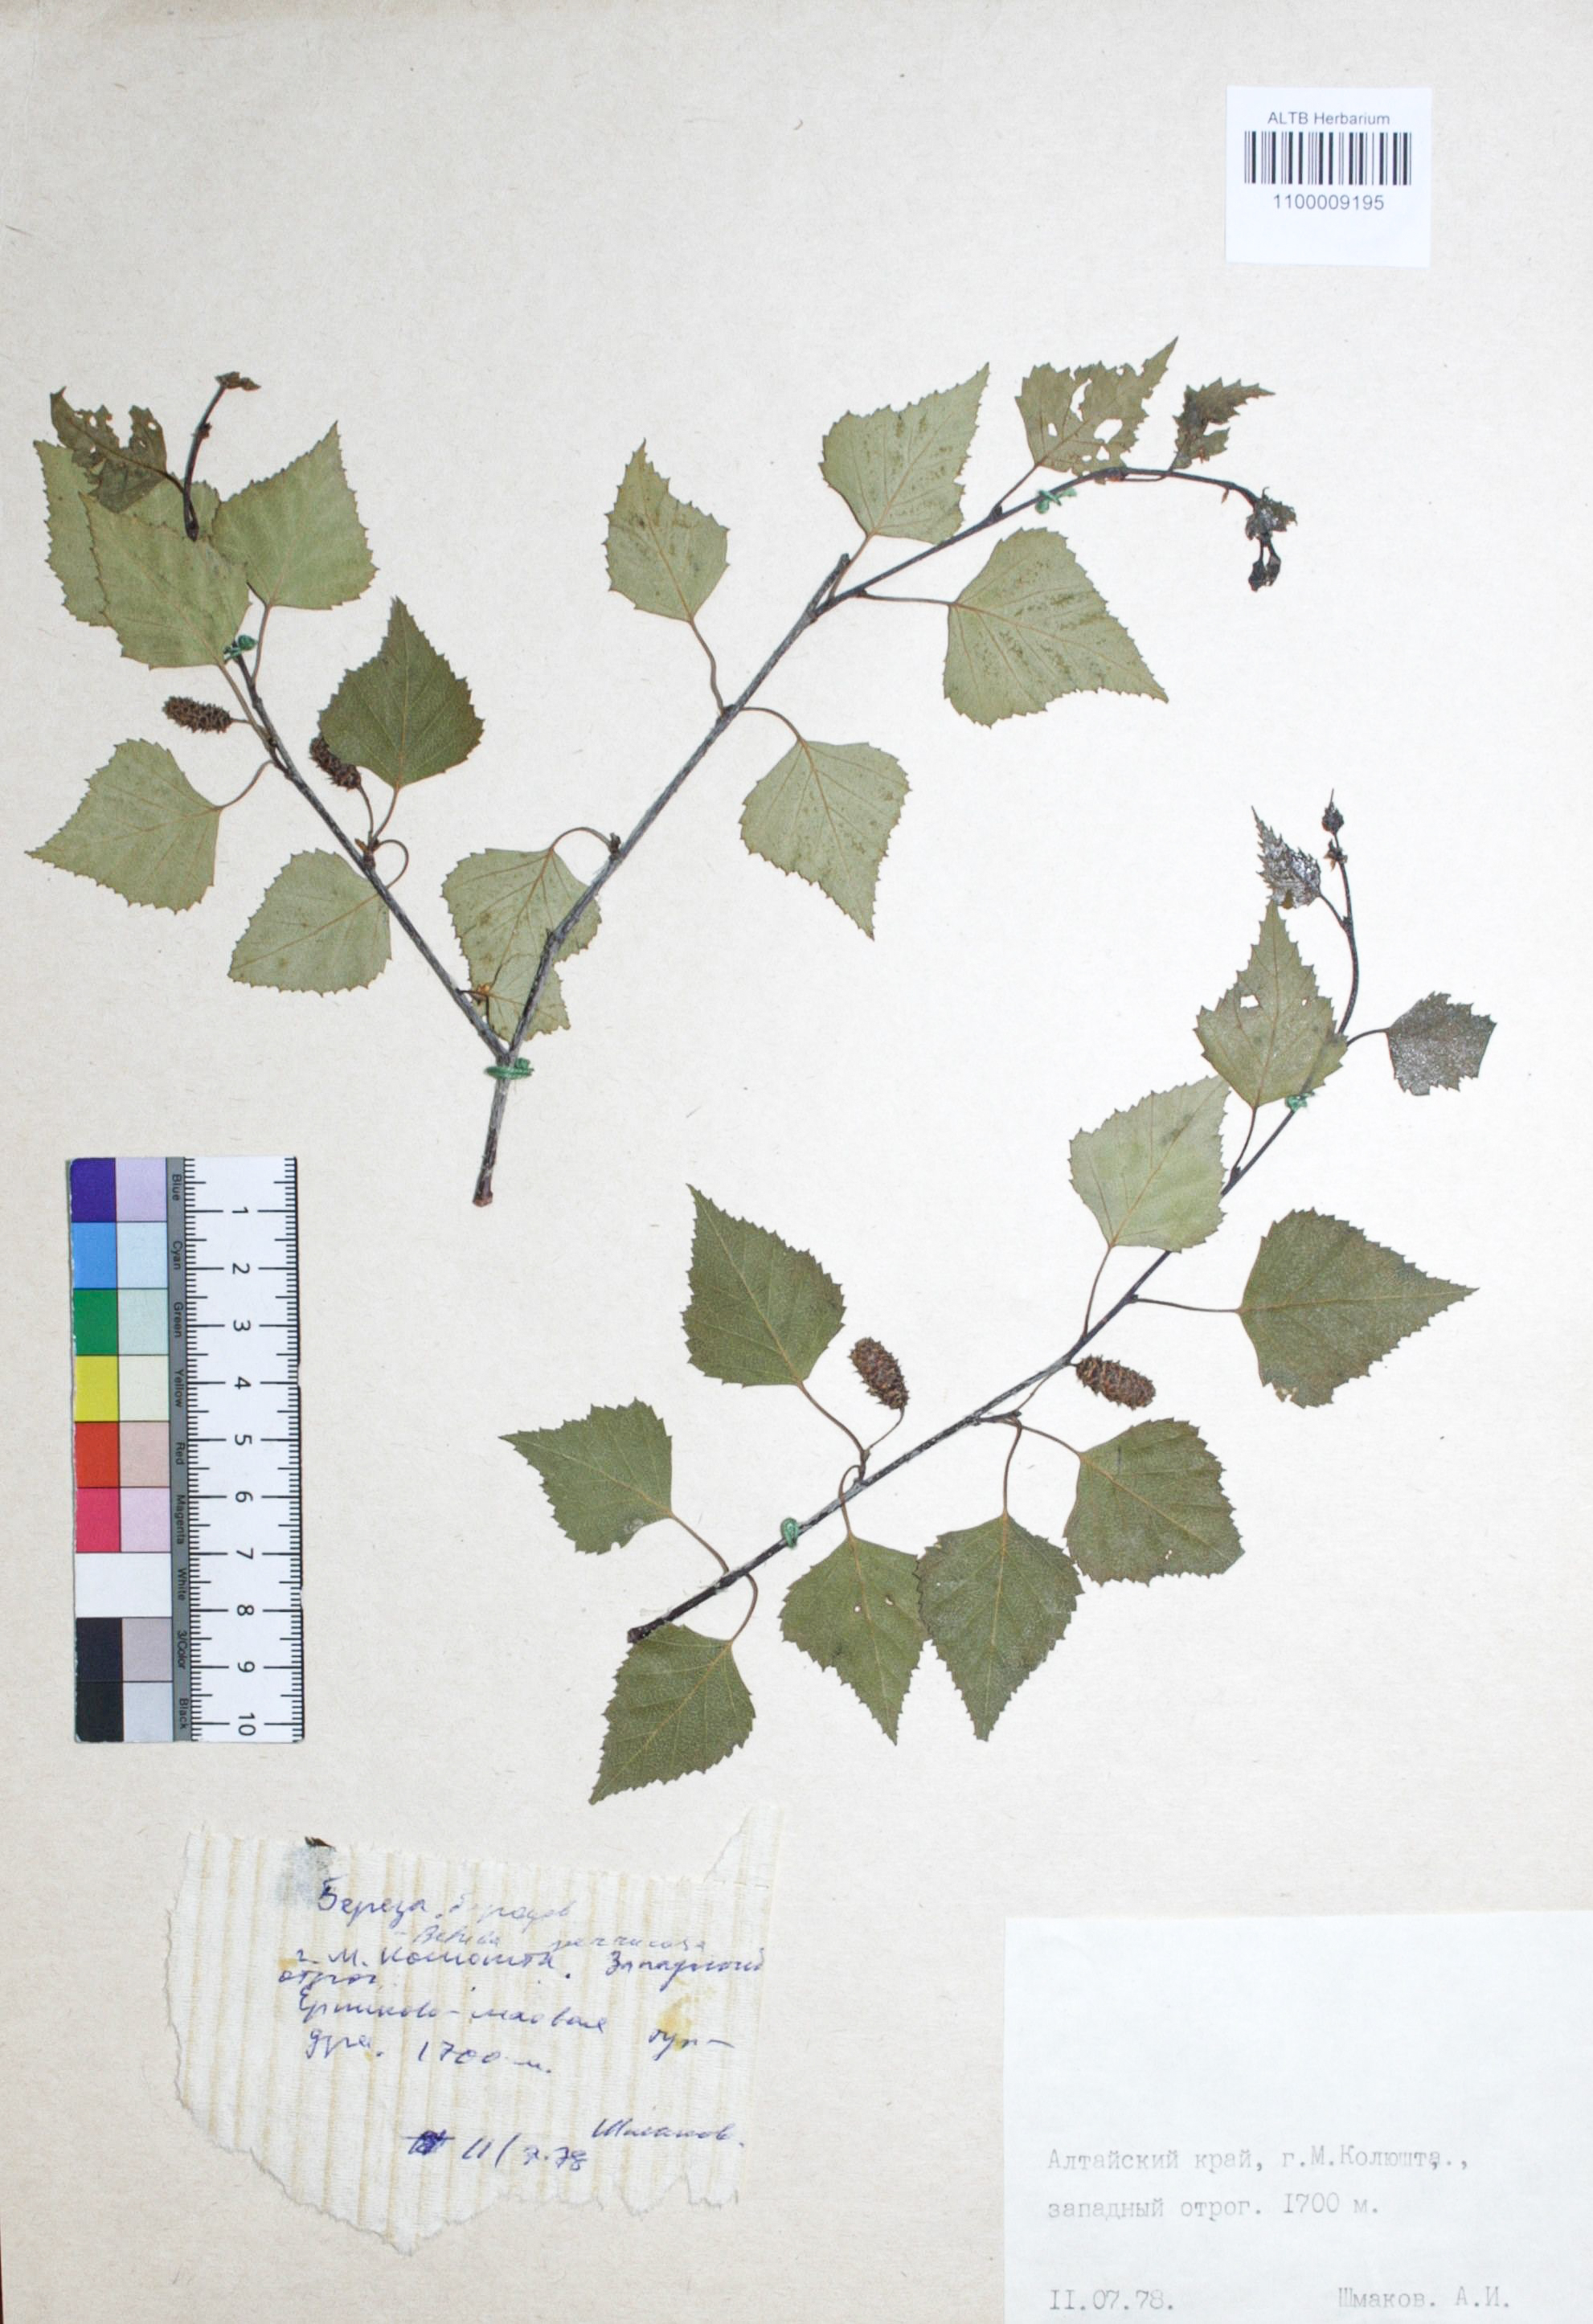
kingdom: Plantae
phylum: Tracheophyta
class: Magnoliopsida
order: Fagales
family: Betulaceae
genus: Betula
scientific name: Betula pendula
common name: Silver birch
